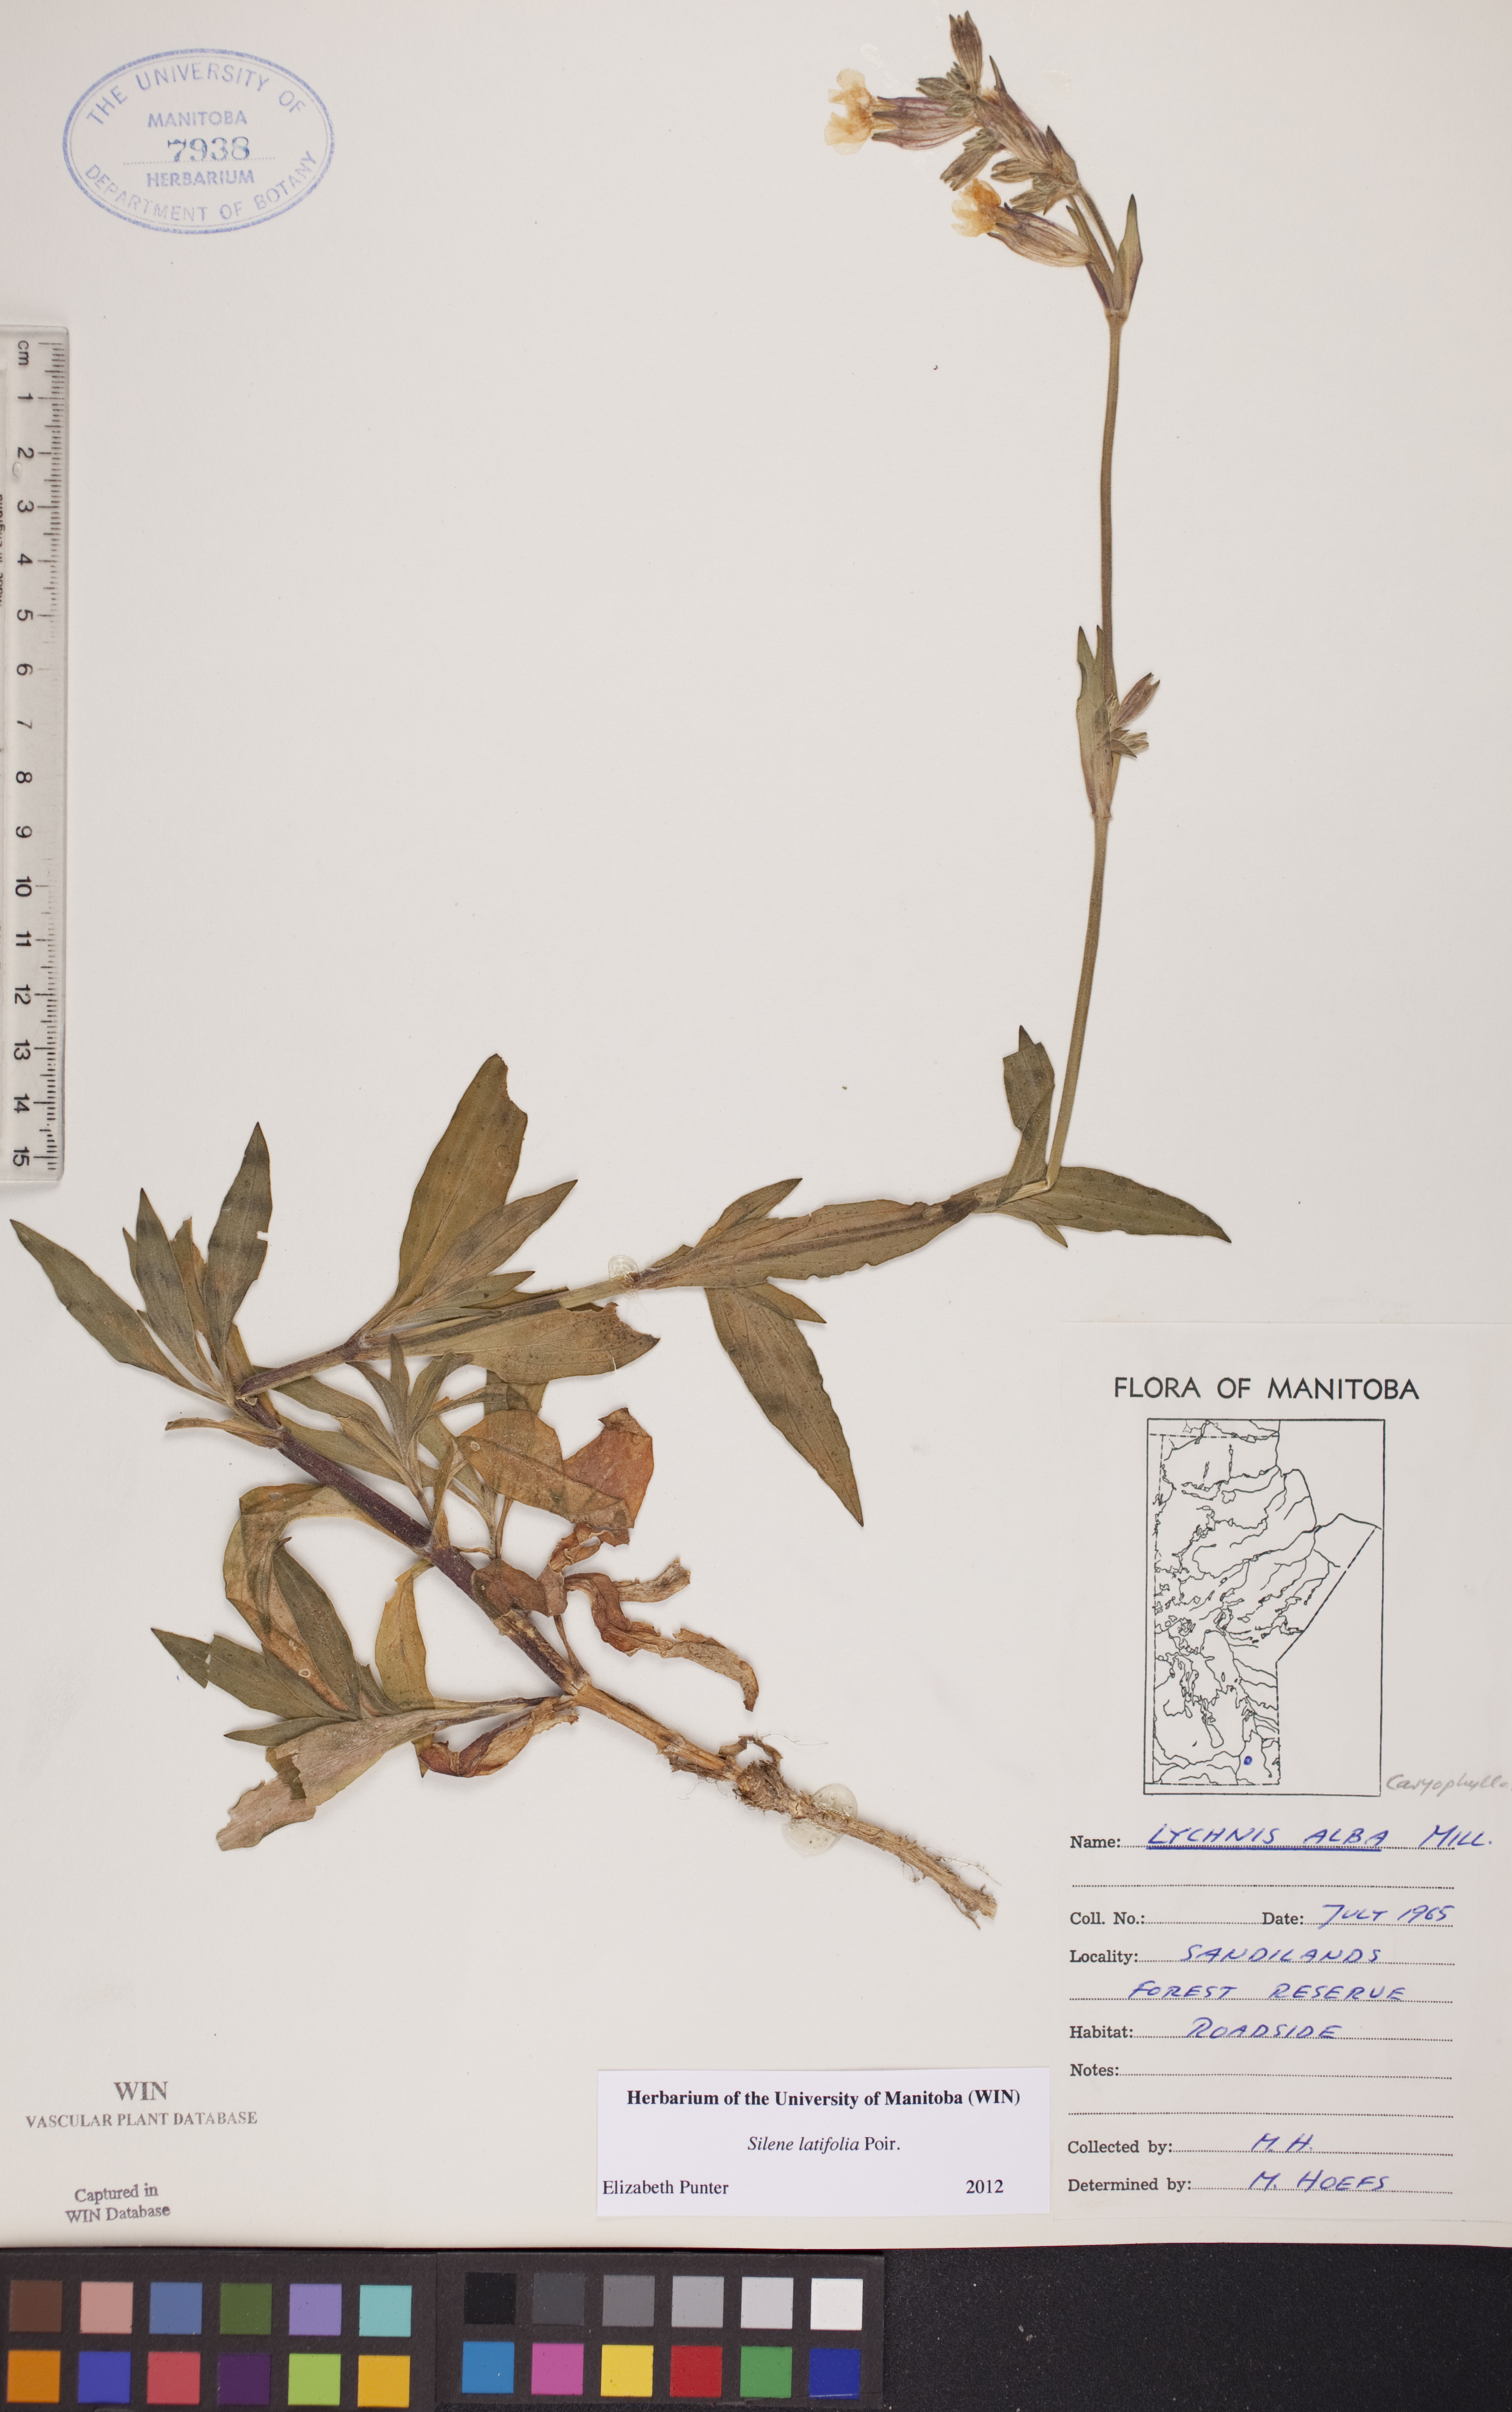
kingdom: Plantae
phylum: Tracheophyta
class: Magnoliopsida
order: Caryophyllales
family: Caryophyllaceae
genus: Silene
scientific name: Silene latifolia
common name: White campion
